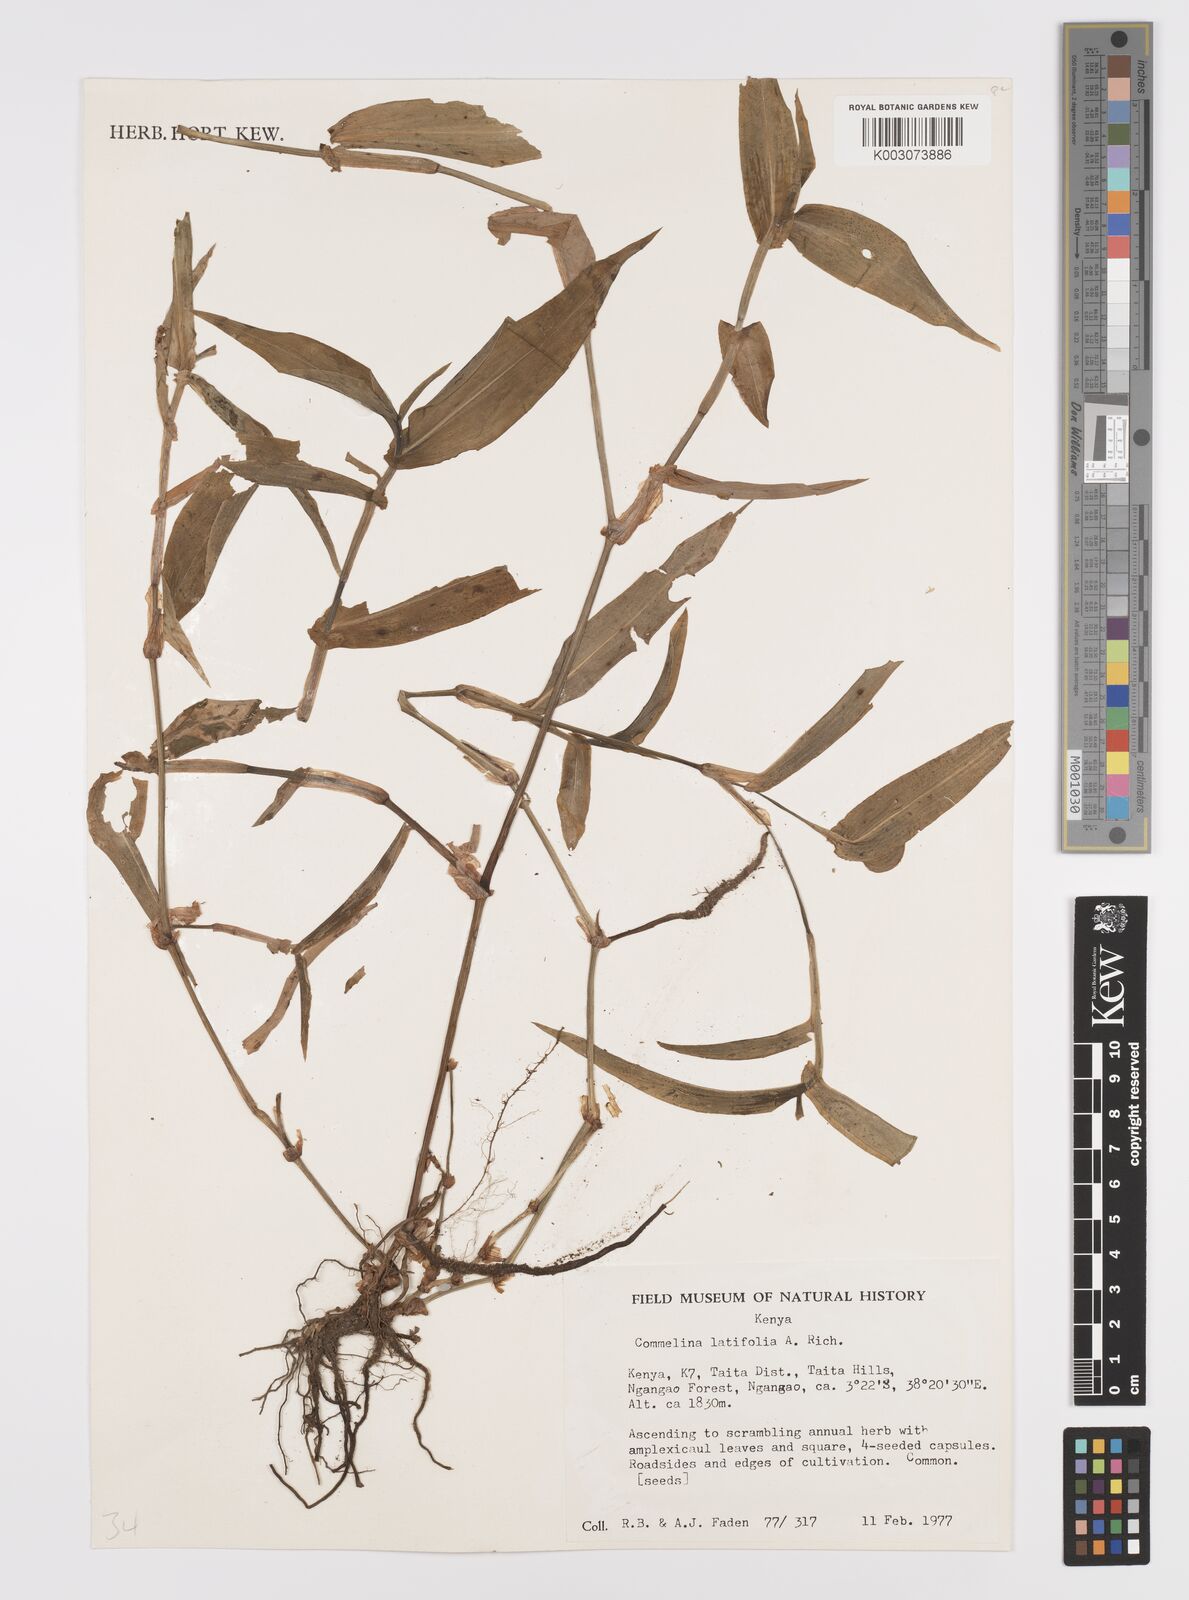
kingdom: Plantae
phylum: Tracheophyta
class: Liliopsida
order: Commelinales
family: Commelinaceae
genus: Commelina
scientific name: Commelina latifolia
